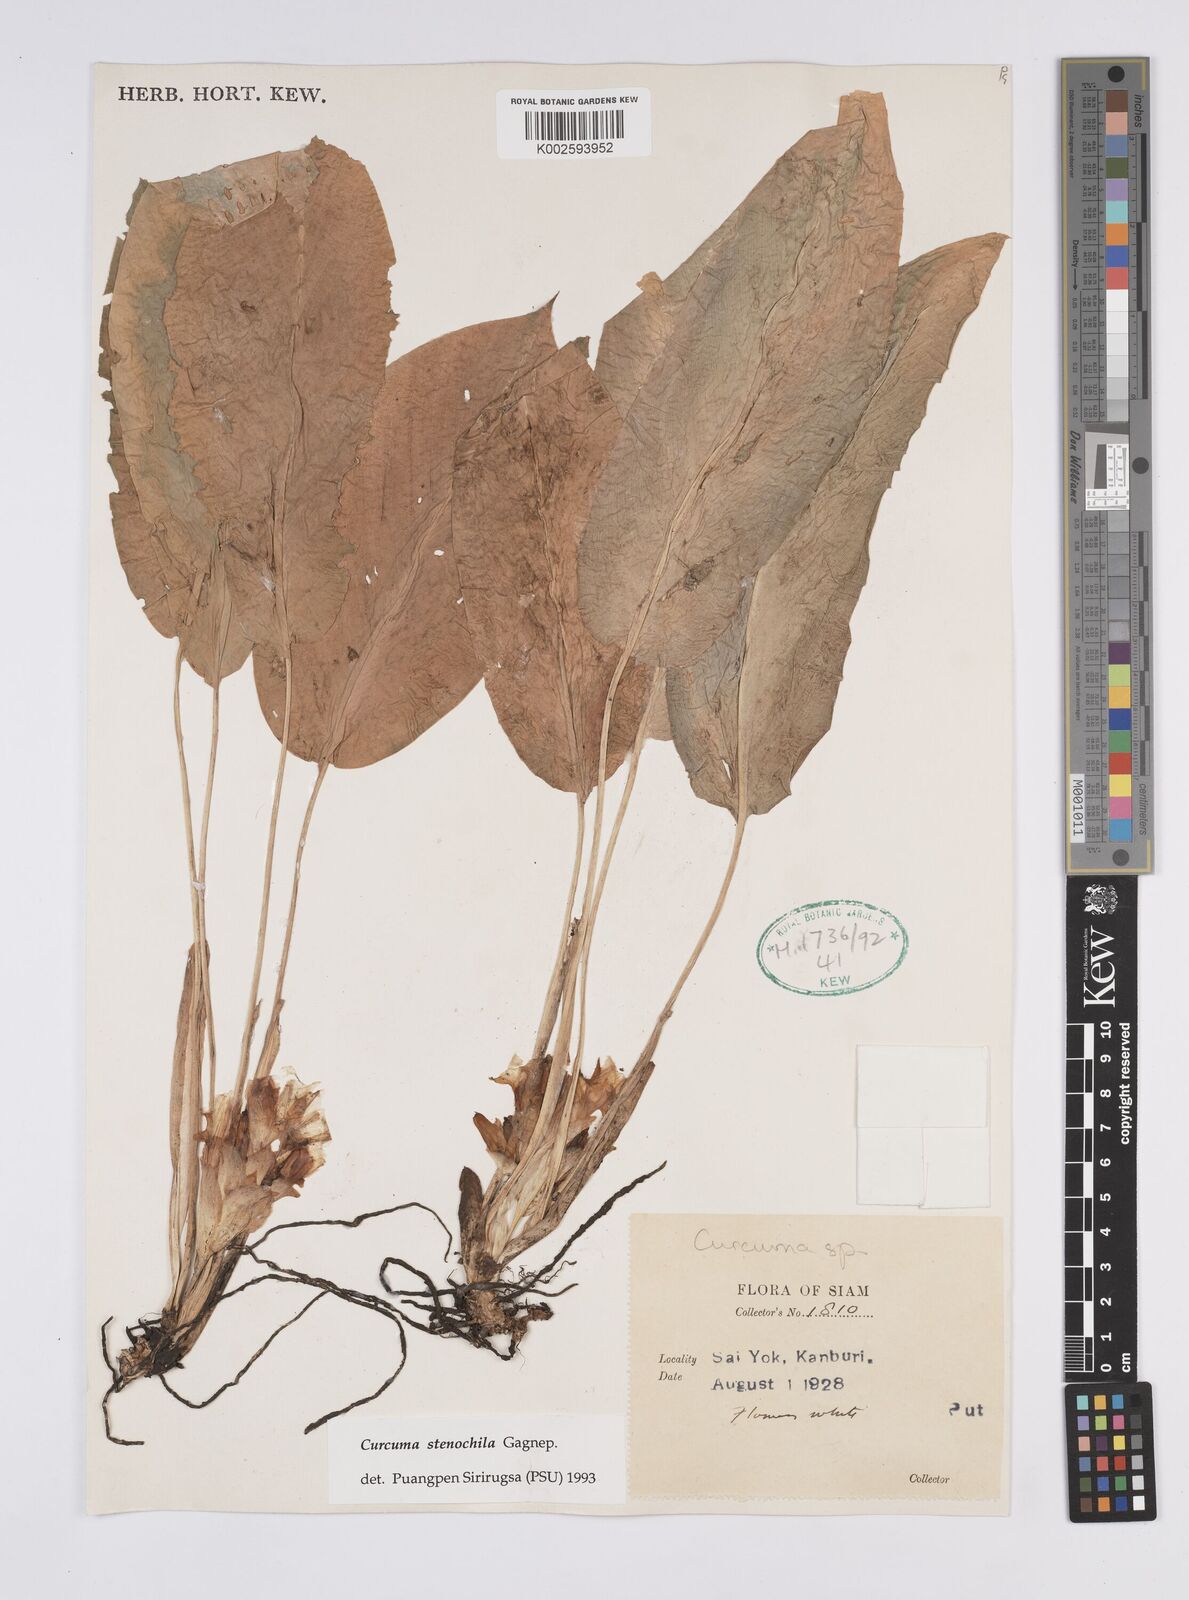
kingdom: Plantae
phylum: Tracheophyta
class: Liliopsida
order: Zingiberales
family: Zingiberaceae
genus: Curcuma
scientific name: Curcuma stenochila
